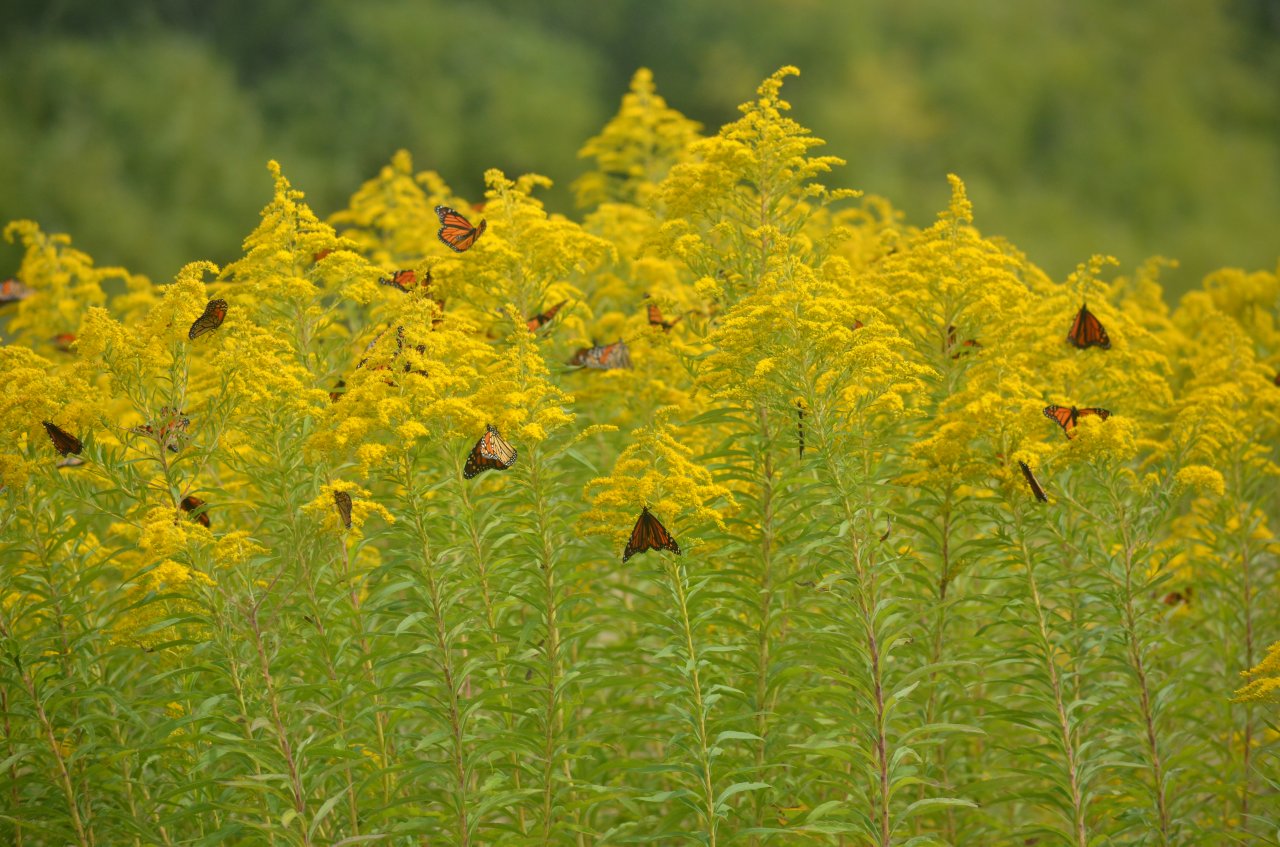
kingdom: Animalia
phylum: Arthropoda
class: Insecta
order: Lepidoptera
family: Nymphalidae
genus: Danaus
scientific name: Danaus plexippus
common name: Monarch
